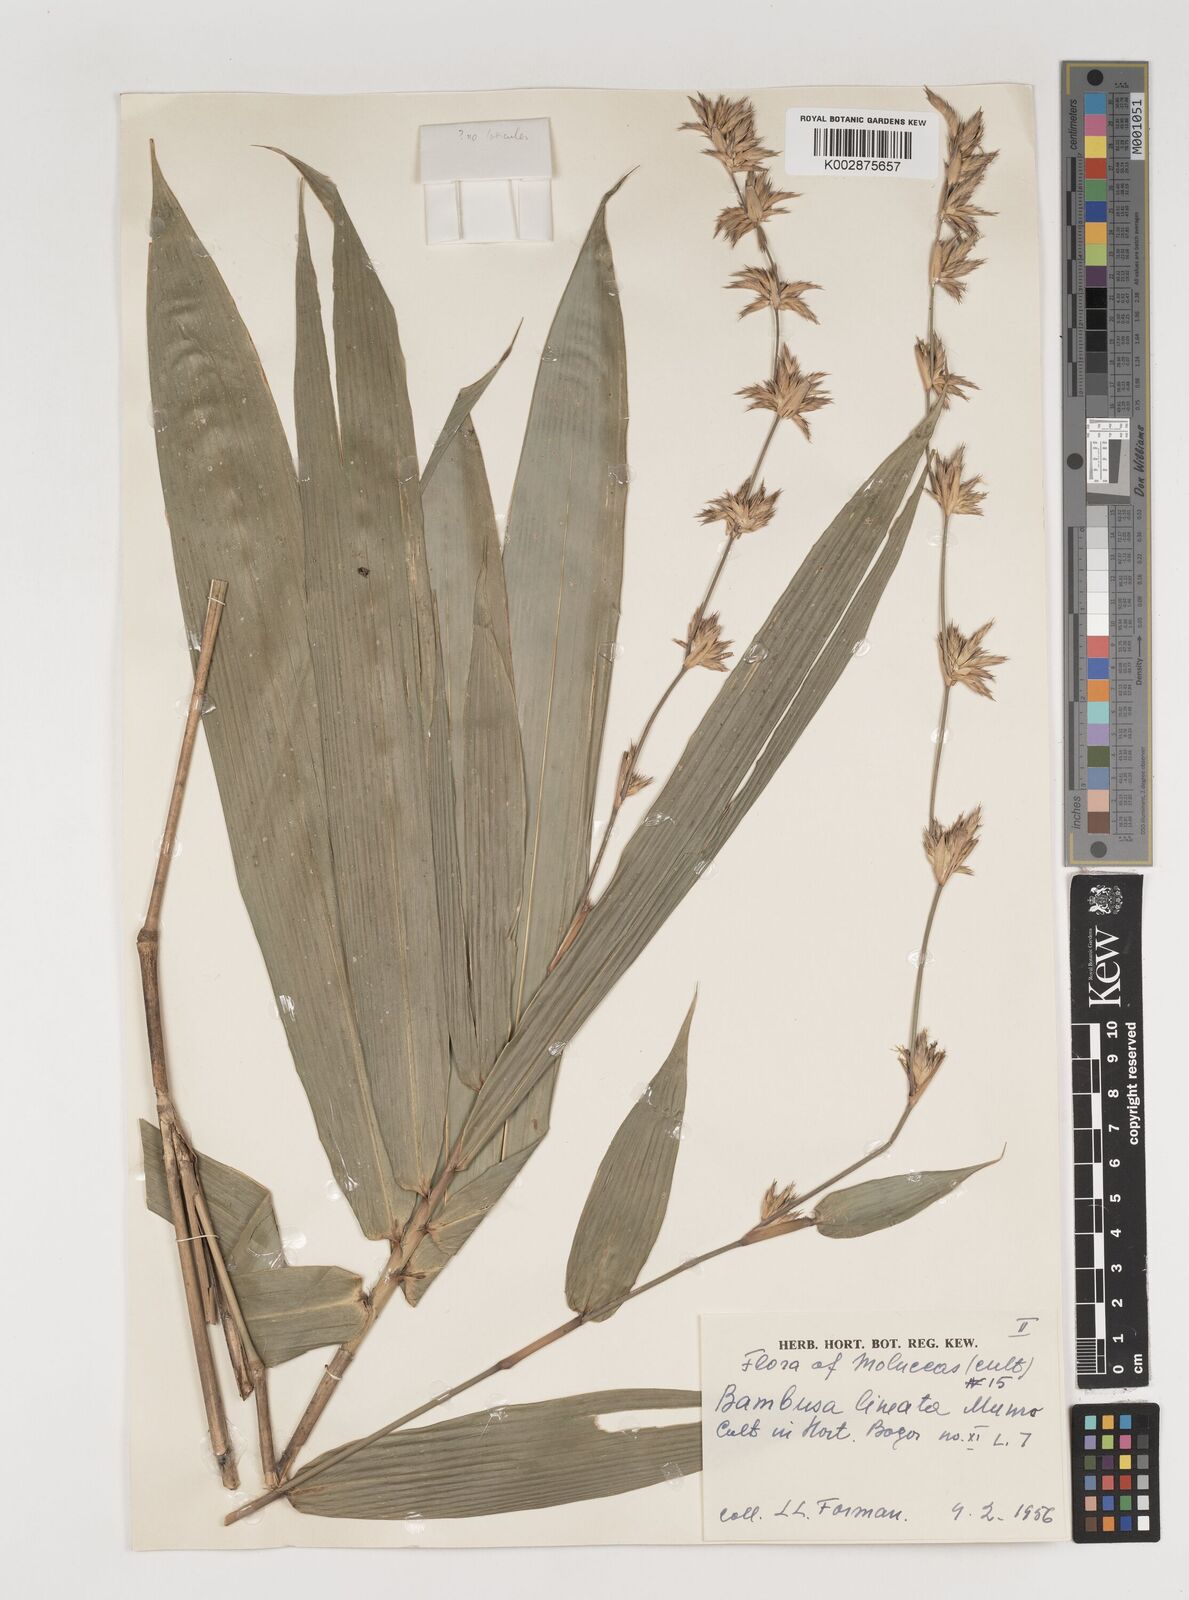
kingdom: Plantae
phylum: Tracheophyta
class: Liliopsida
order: Poales
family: Poaceae
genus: Neololeba
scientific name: Neololeba atra
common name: Cape bamboo
